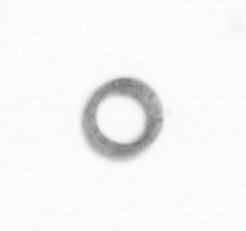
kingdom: Chromista
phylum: Ochrophyta
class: Bacillariophyceae
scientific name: Bacillariophyceae
